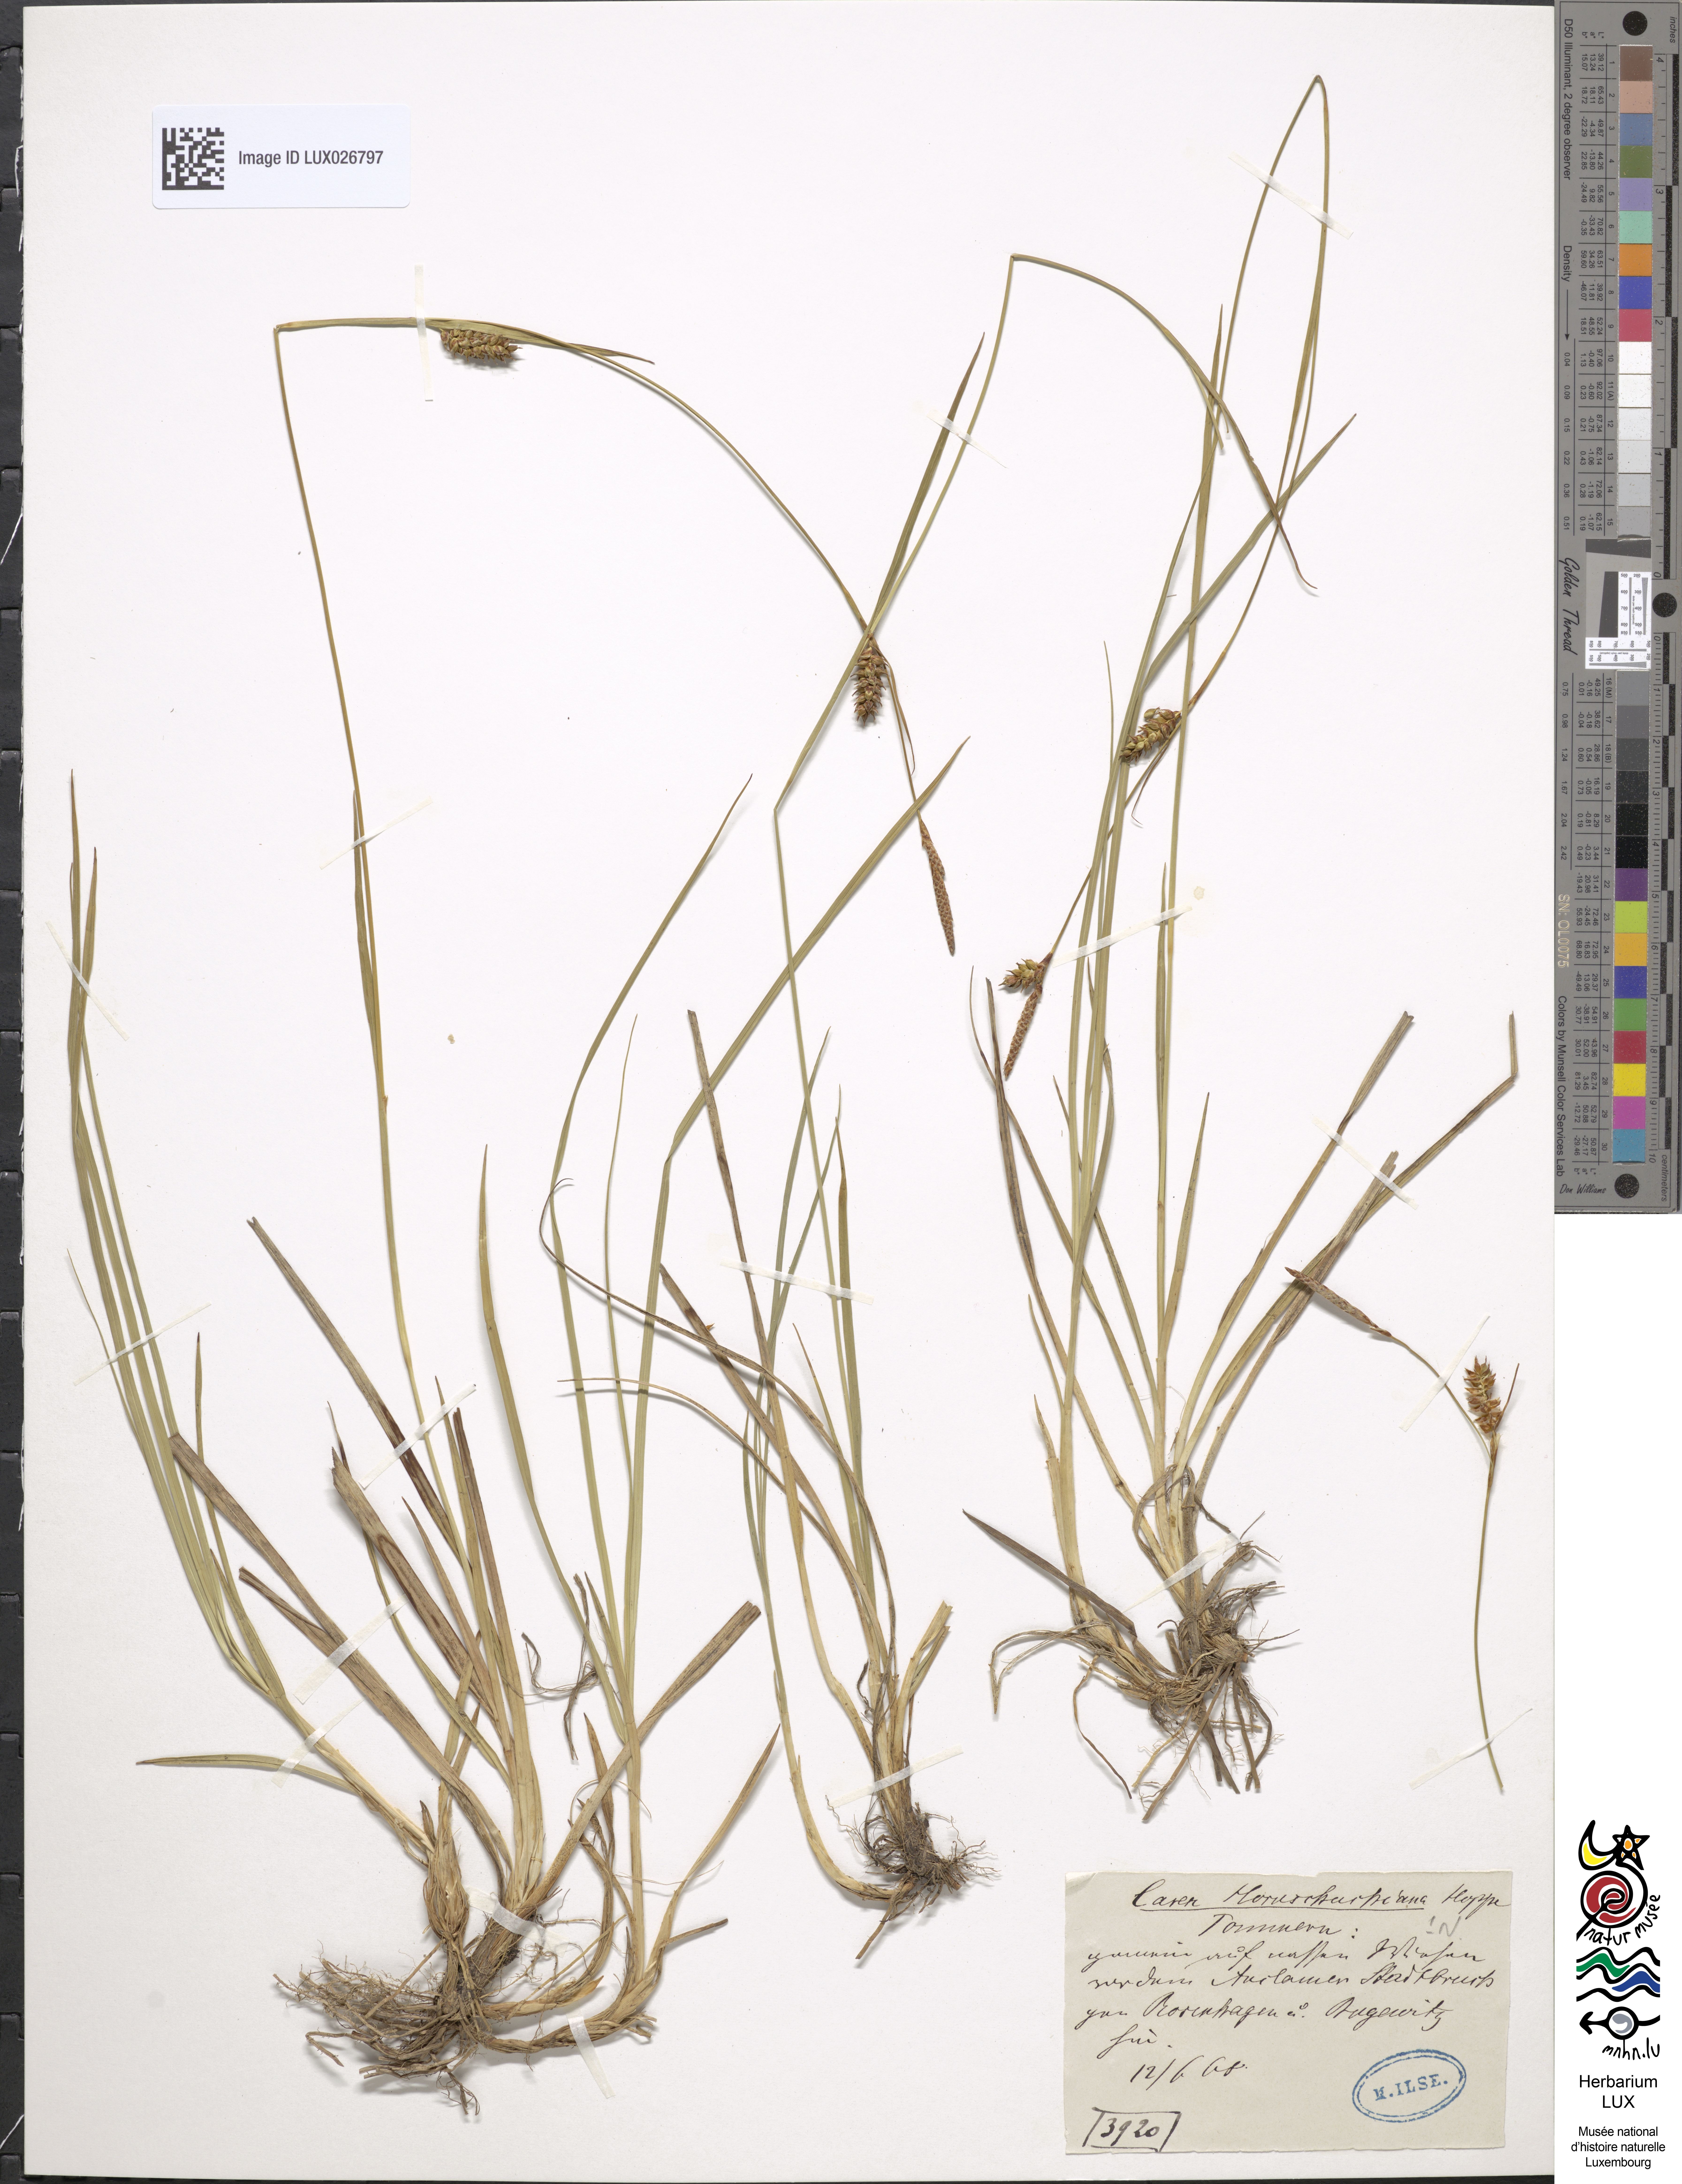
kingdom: Plantae
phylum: Tracheophyta
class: Liliopsida
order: Poales
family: Cyperaceae
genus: Carex
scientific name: Carex hostiana
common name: Tawny sedge
